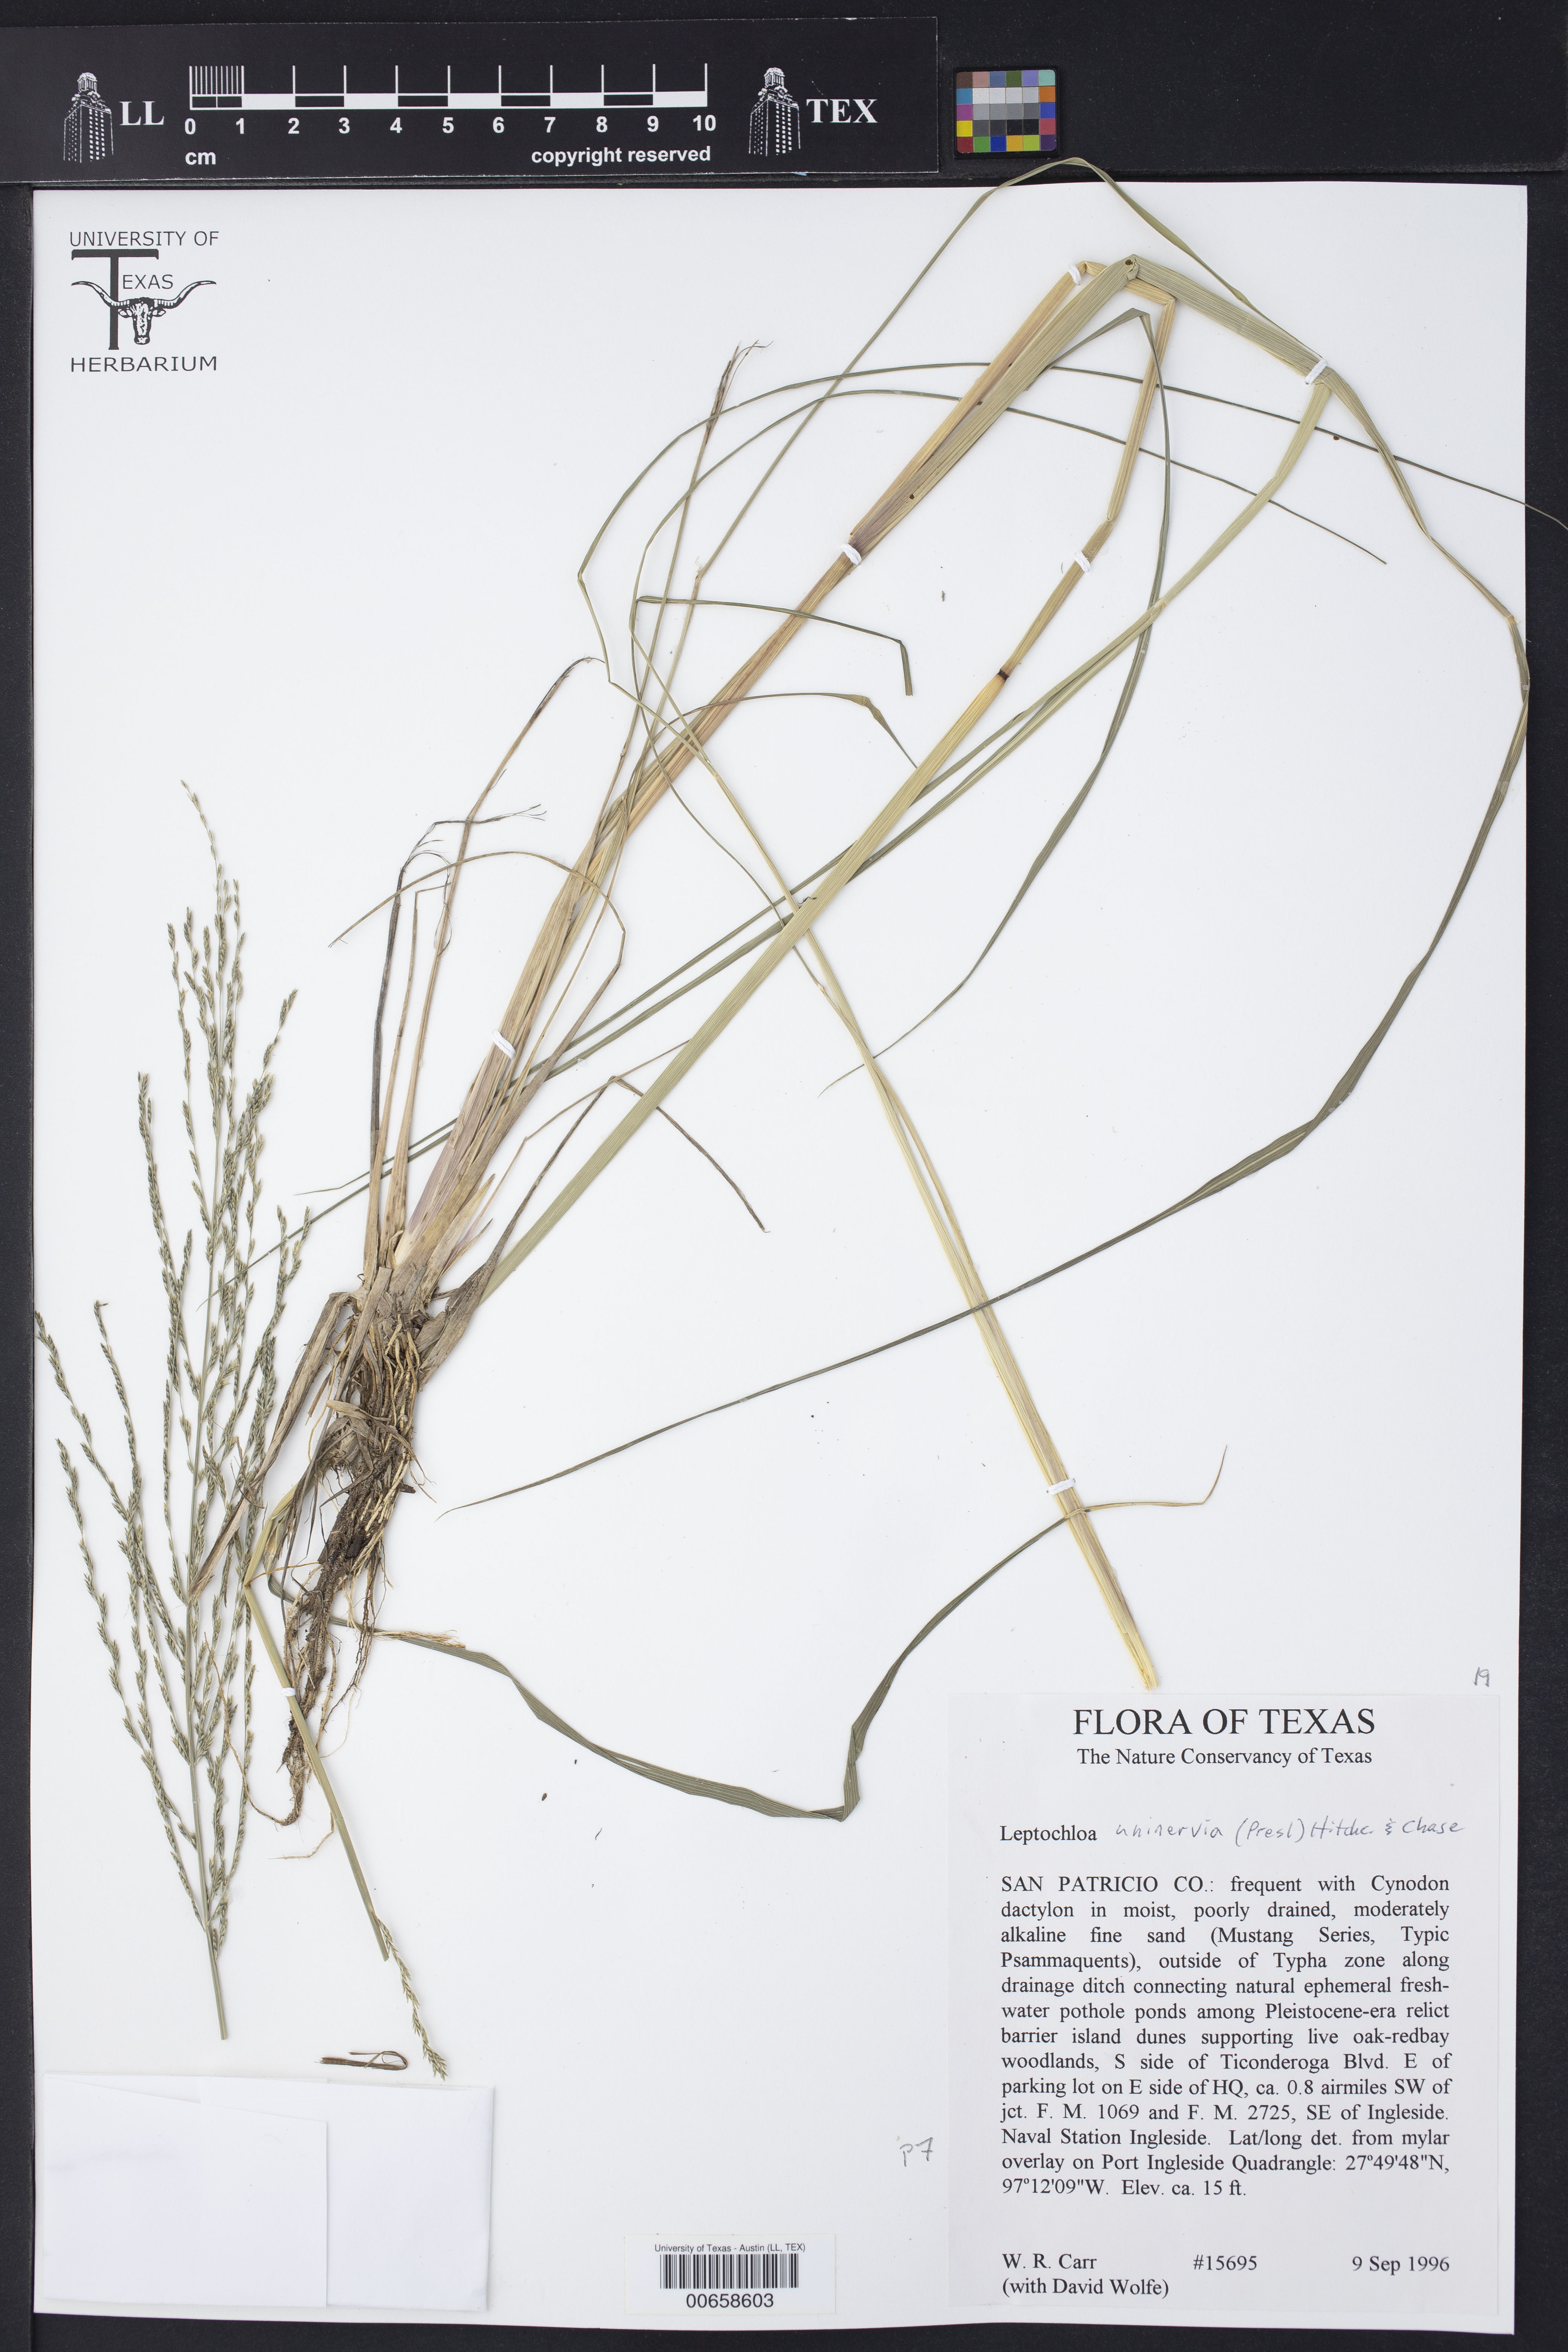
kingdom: Plantae
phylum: Tracheophyta
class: Liliopsida
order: Poales
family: Poaceae
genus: Diplachne
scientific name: Diplachne fusca
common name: Brown beetle grass
